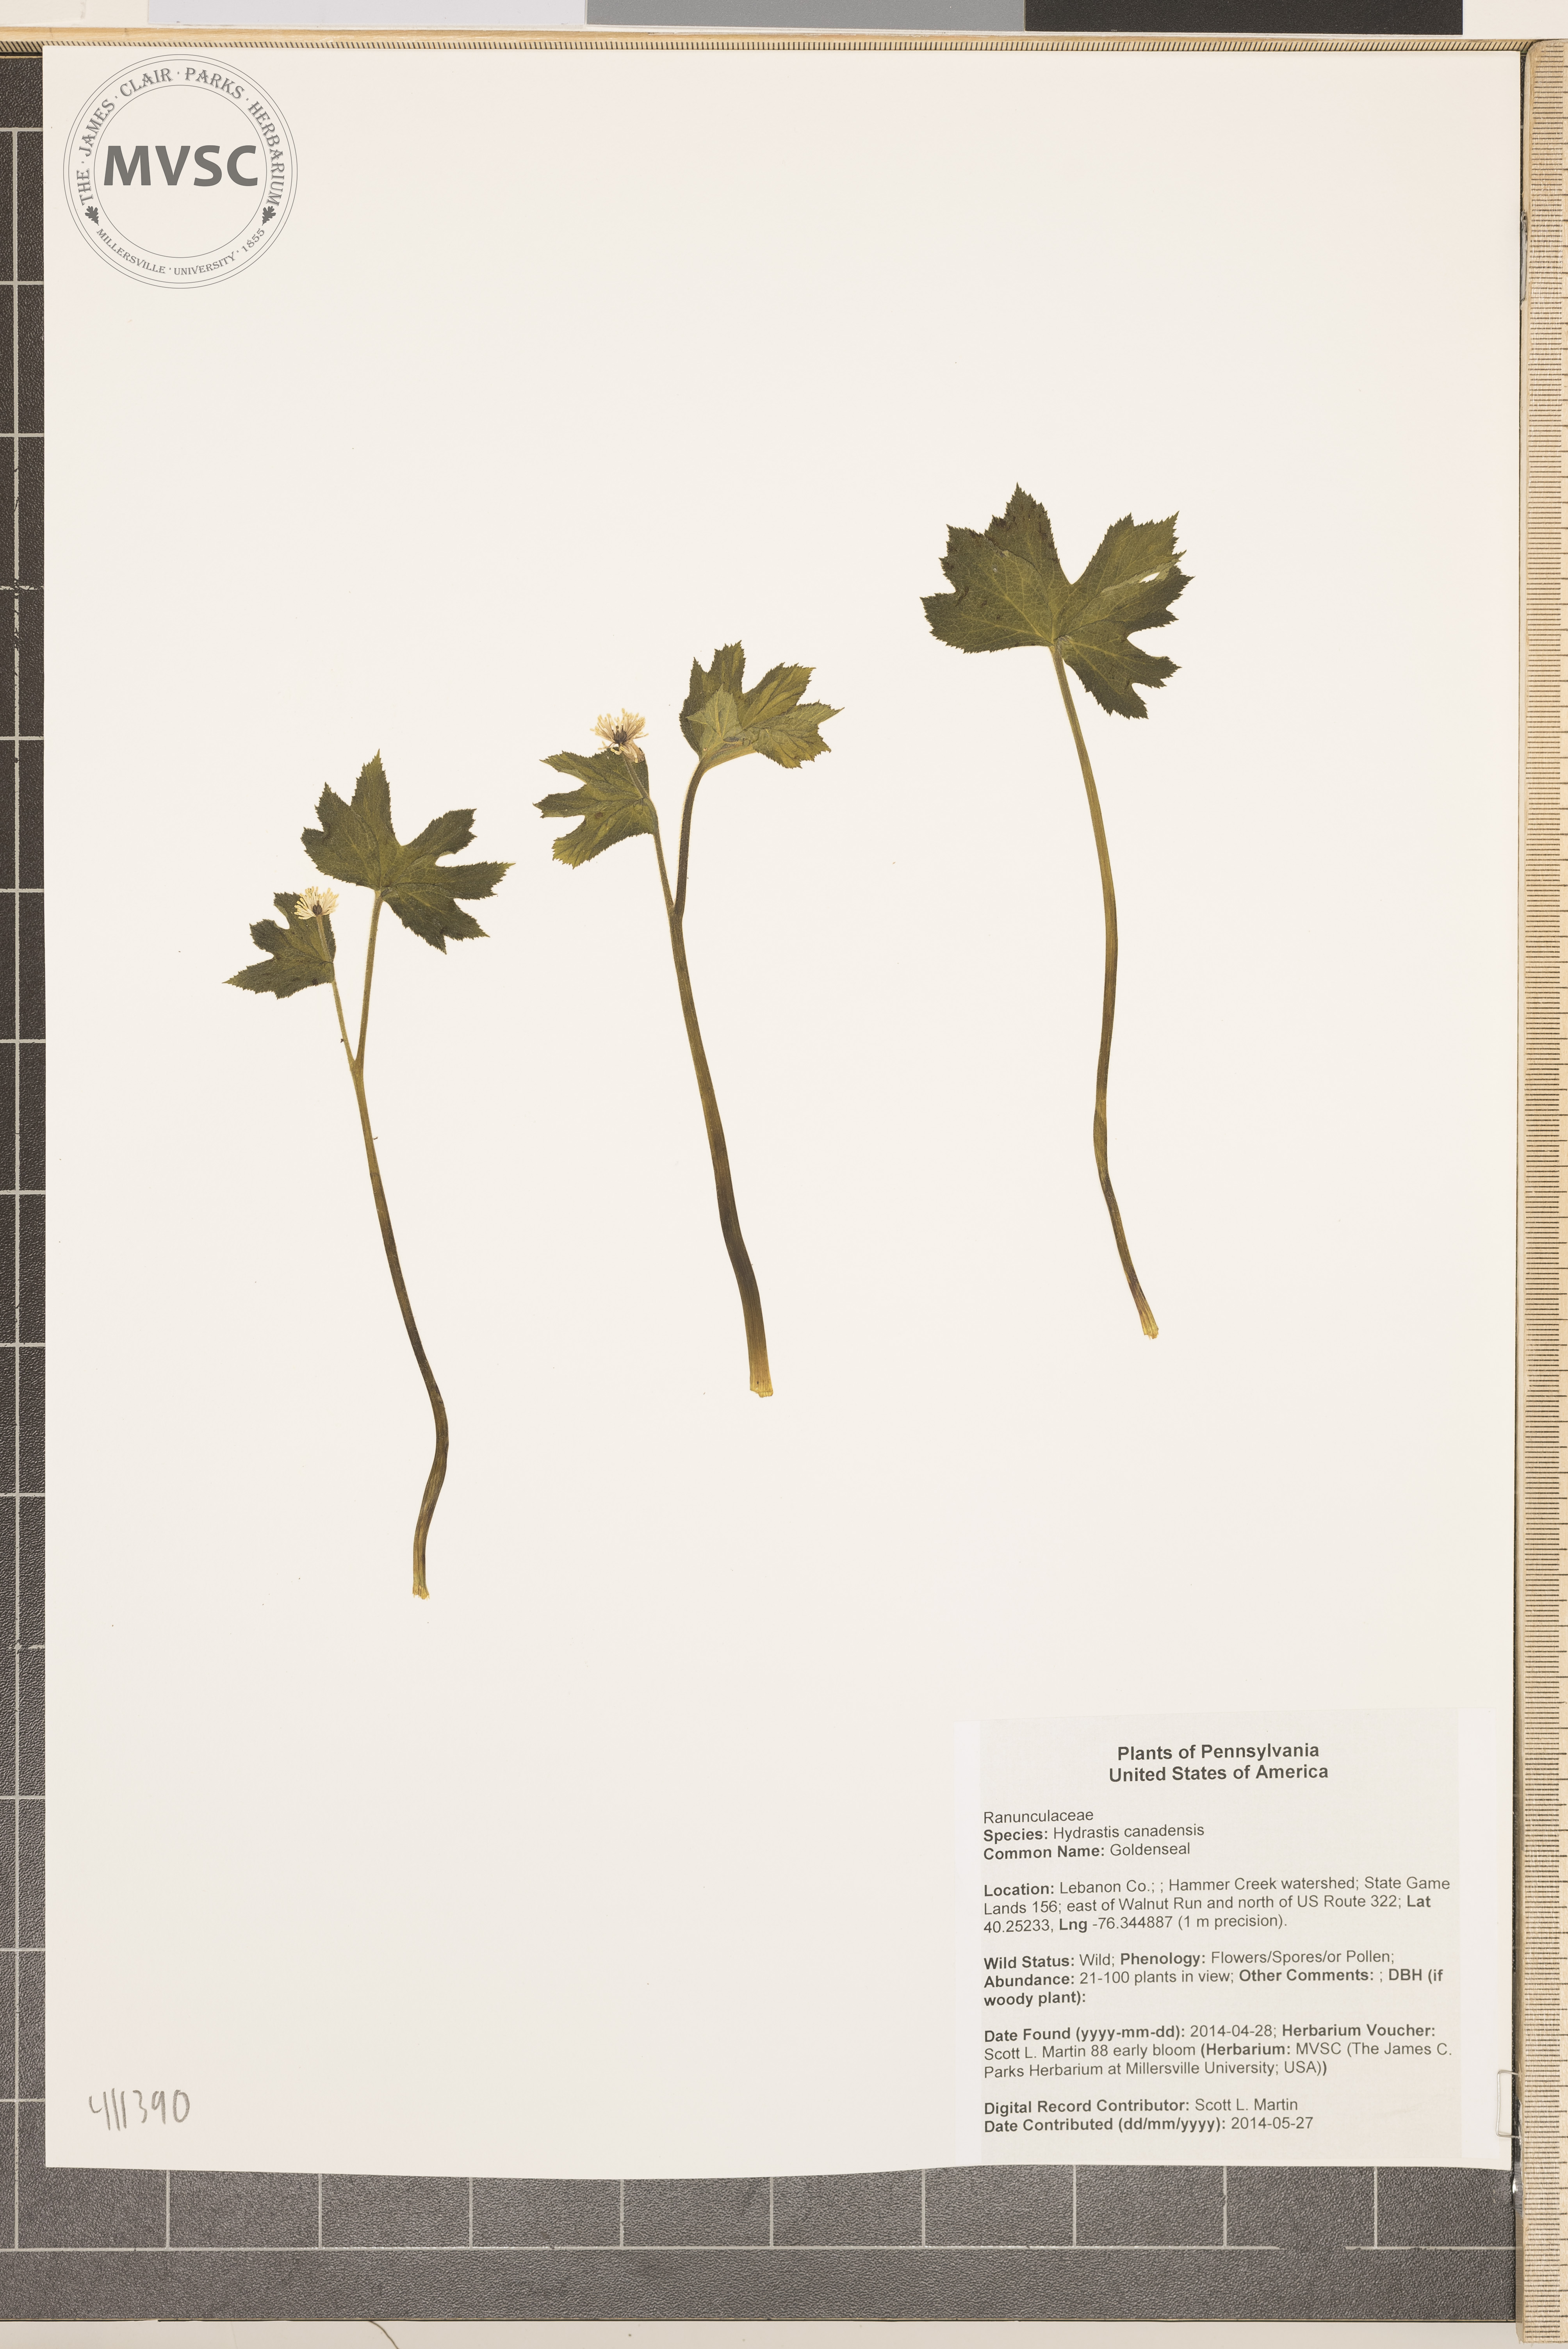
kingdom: Plantae
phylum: Tracheophyta
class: Magnoliopsida
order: Ranunculales
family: Ranunculaceae
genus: Hydrastis
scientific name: Hydrastis canadensis
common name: Goldenseal
